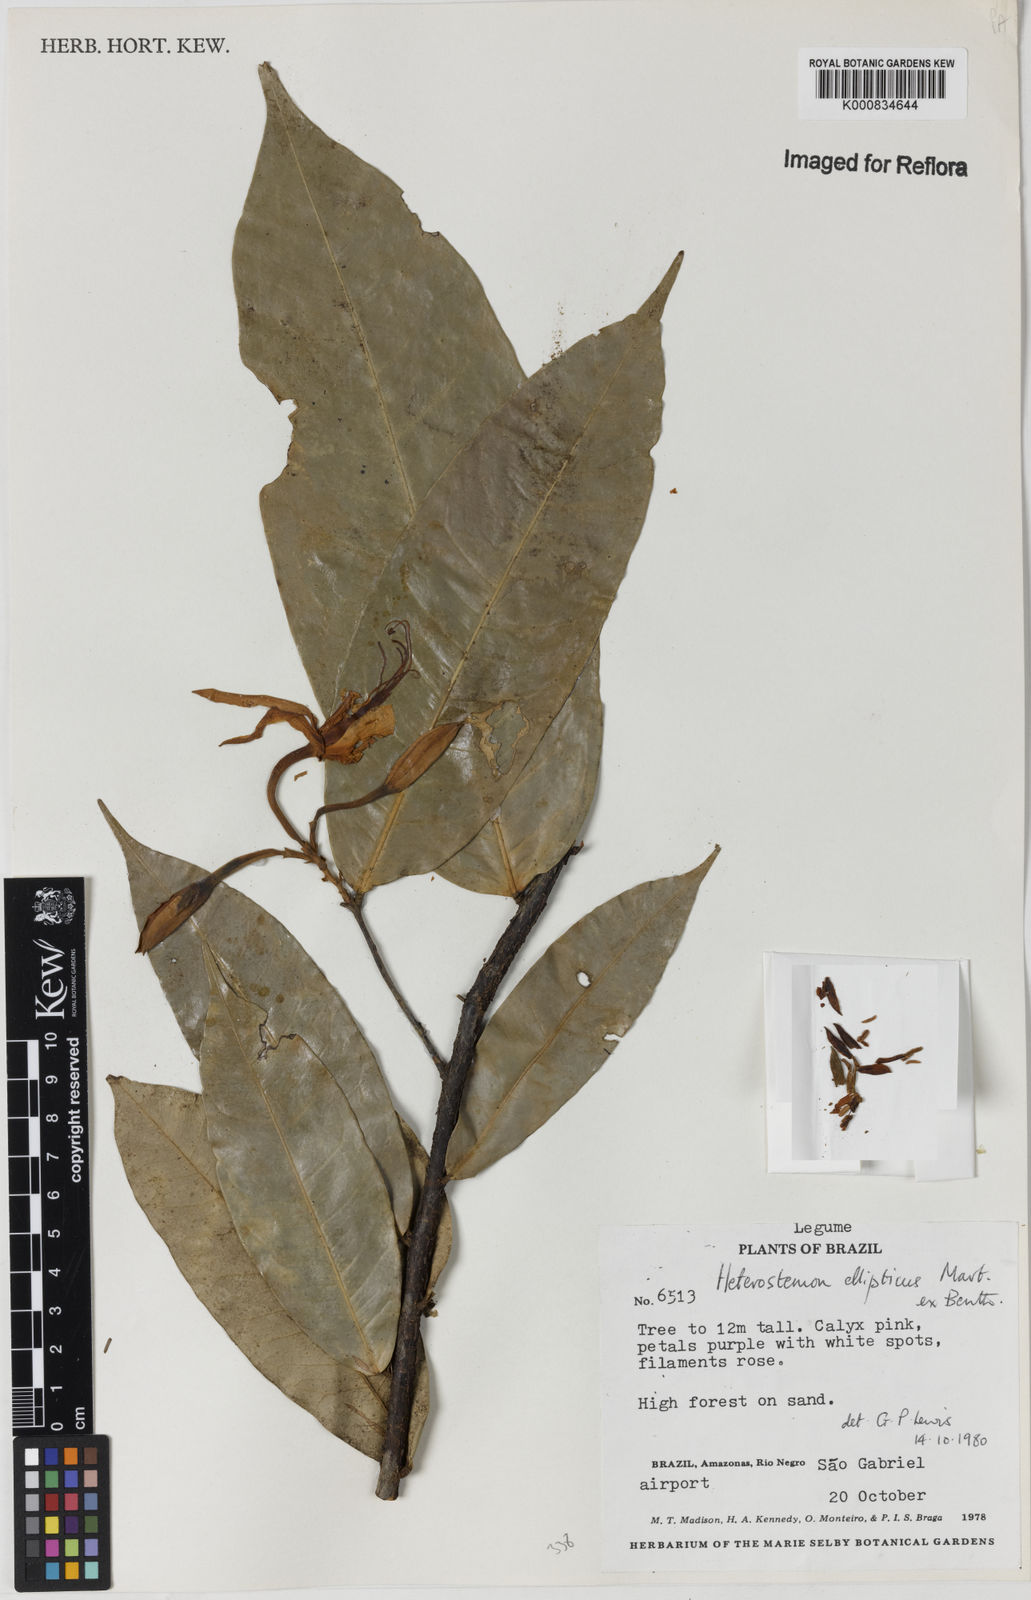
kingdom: Plantae
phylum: Tracheophyta
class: Magnoliopsida
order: Fabales
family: Fabaceae
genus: Heterostemon
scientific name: Heterostemon ellipticus
